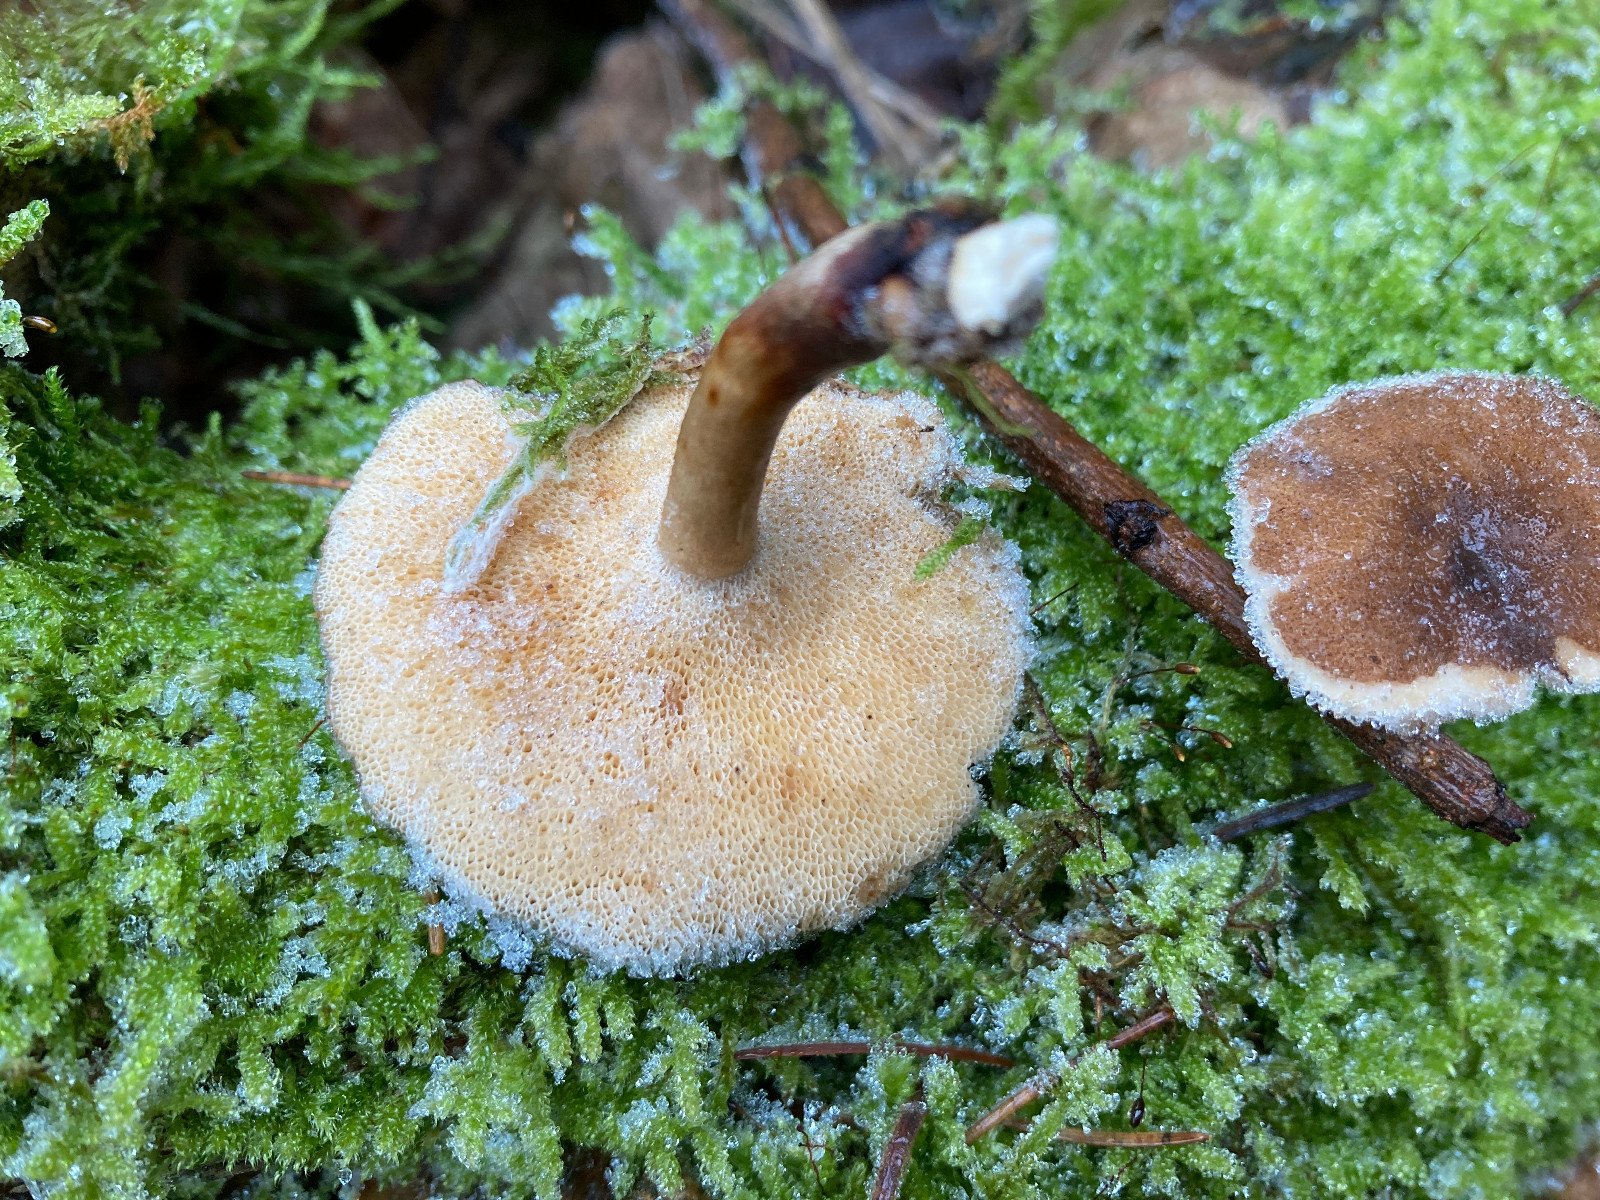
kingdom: Fungi
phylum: Basidiomycota
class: Agaricomycetes
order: Polyporales
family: Polyporaceae
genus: Lentinus
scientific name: Lentinus brumalis
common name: vinter-stilkporesvamp
